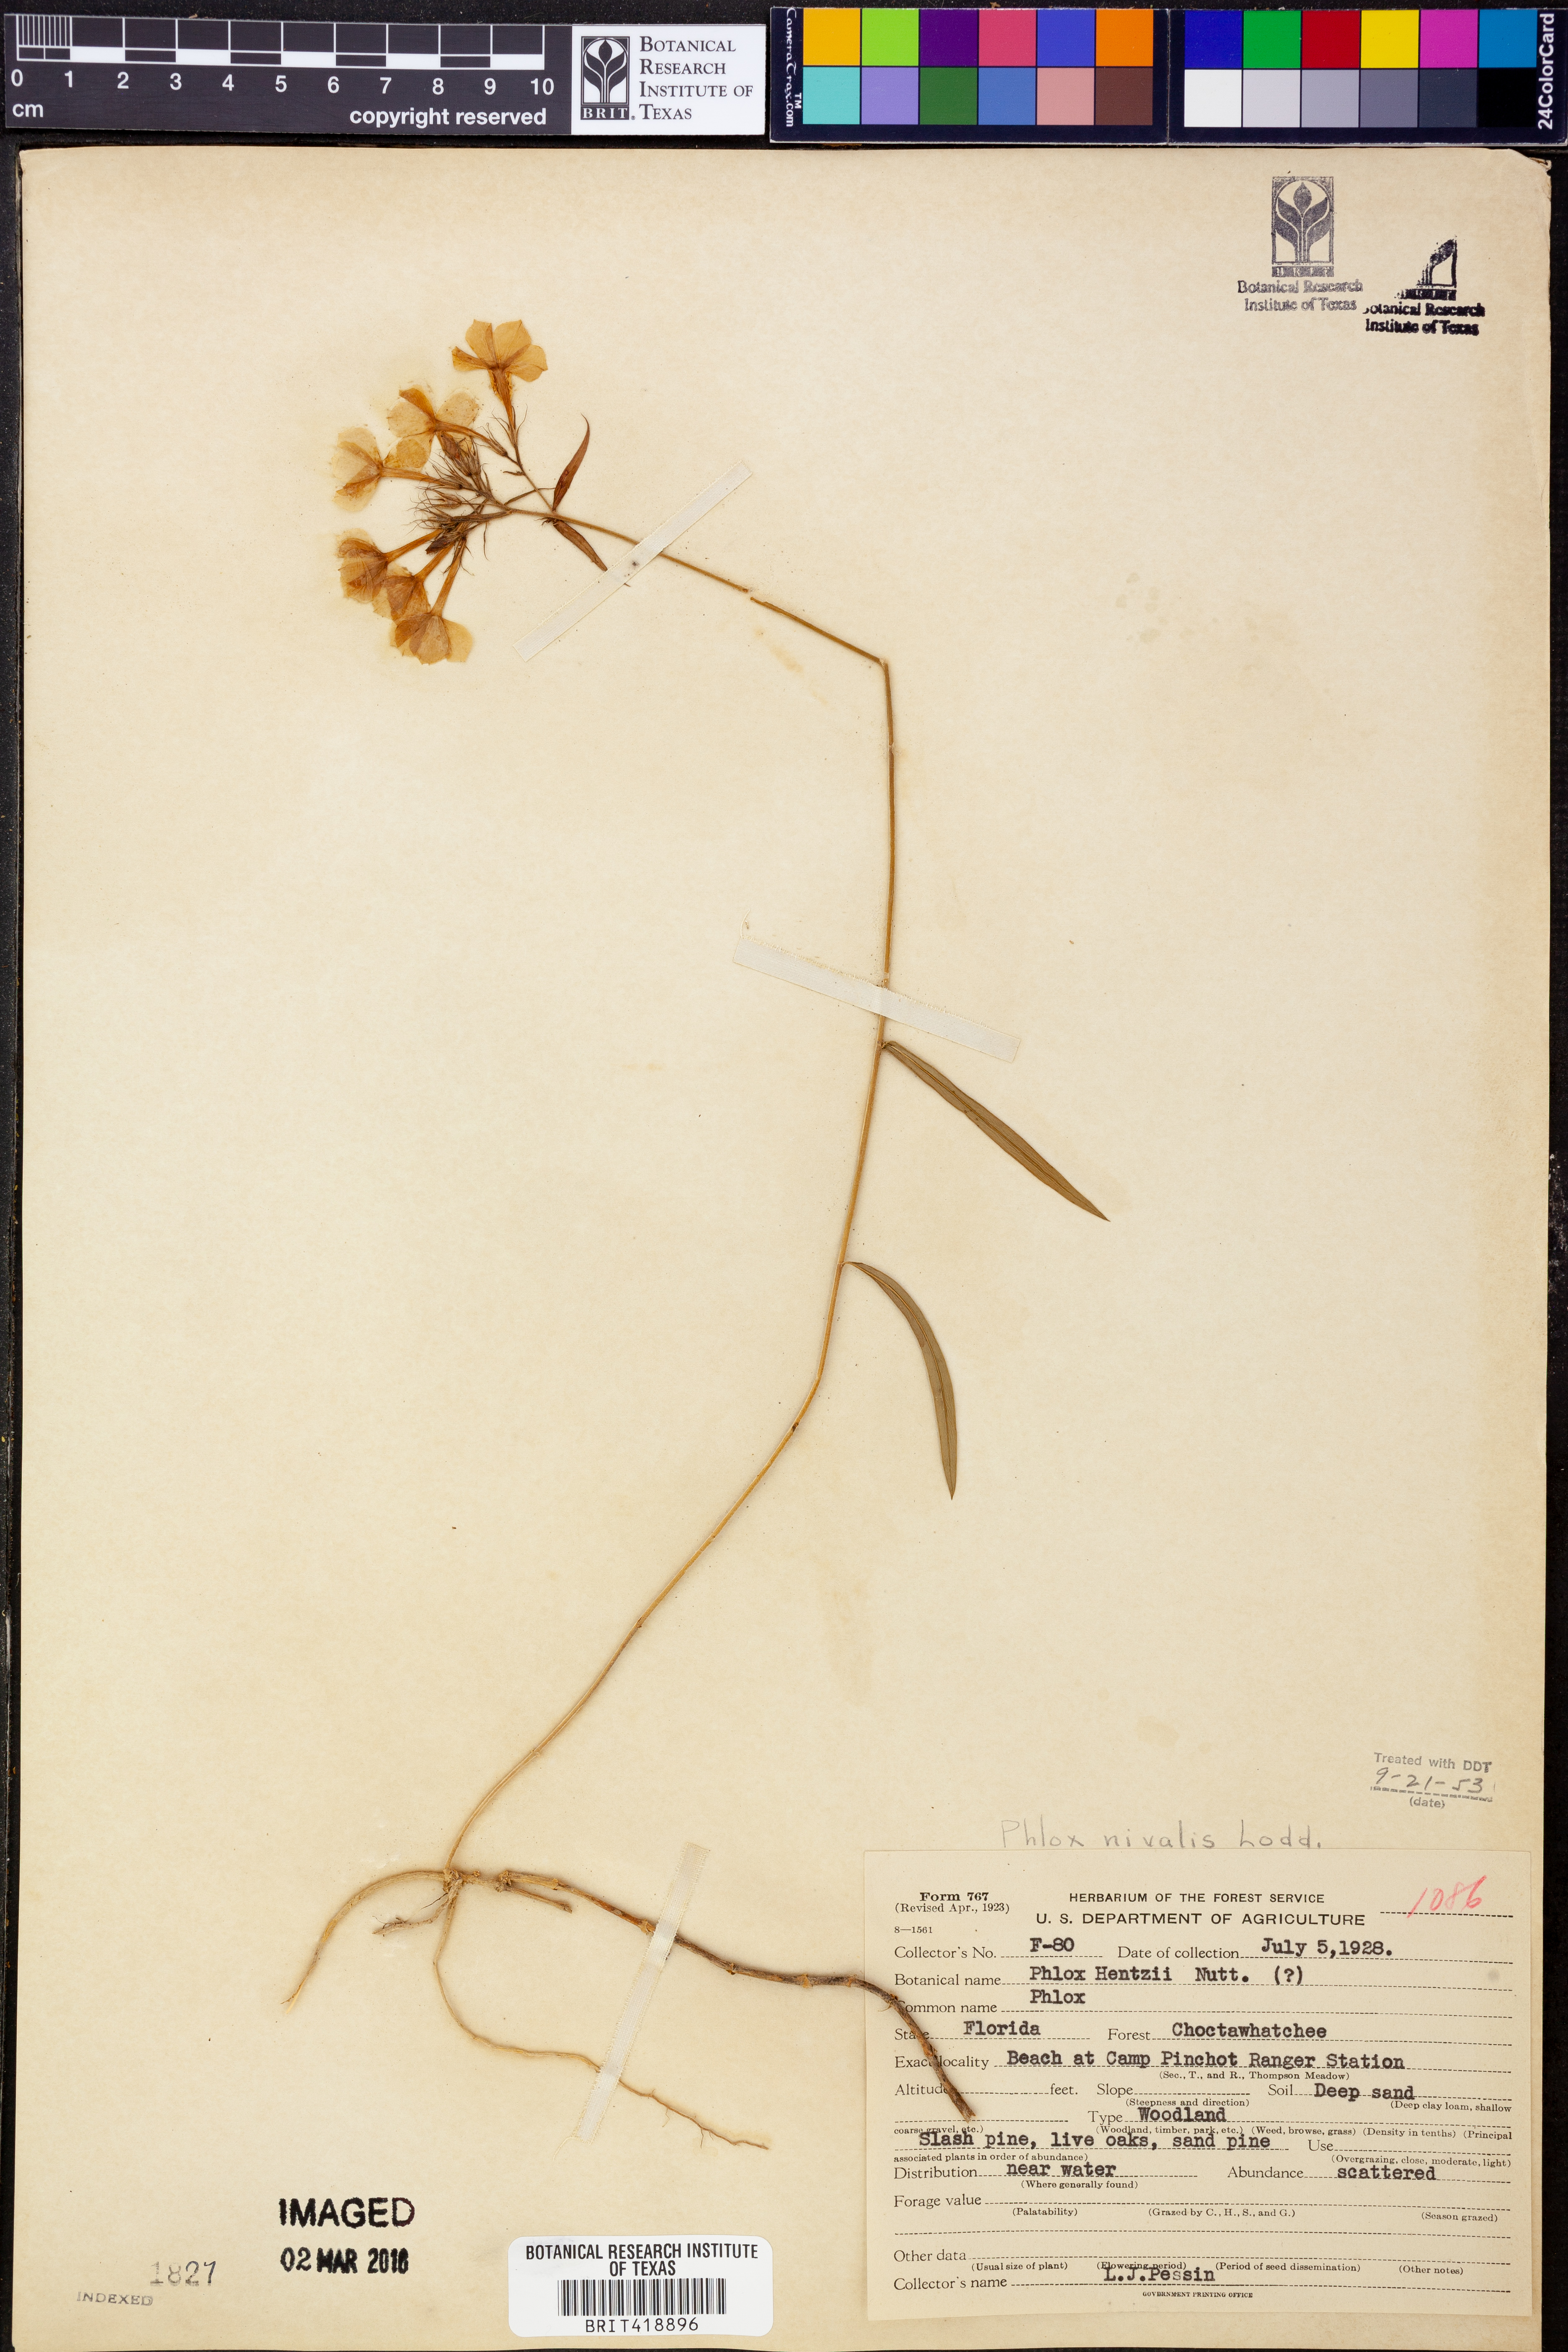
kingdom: Plantae
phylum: Tracheophyta
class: Magnoliopsida
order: Ericales
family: Polemoniaceae
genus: Phlox
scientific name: Phlox nivalis
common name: Trailing phlox
